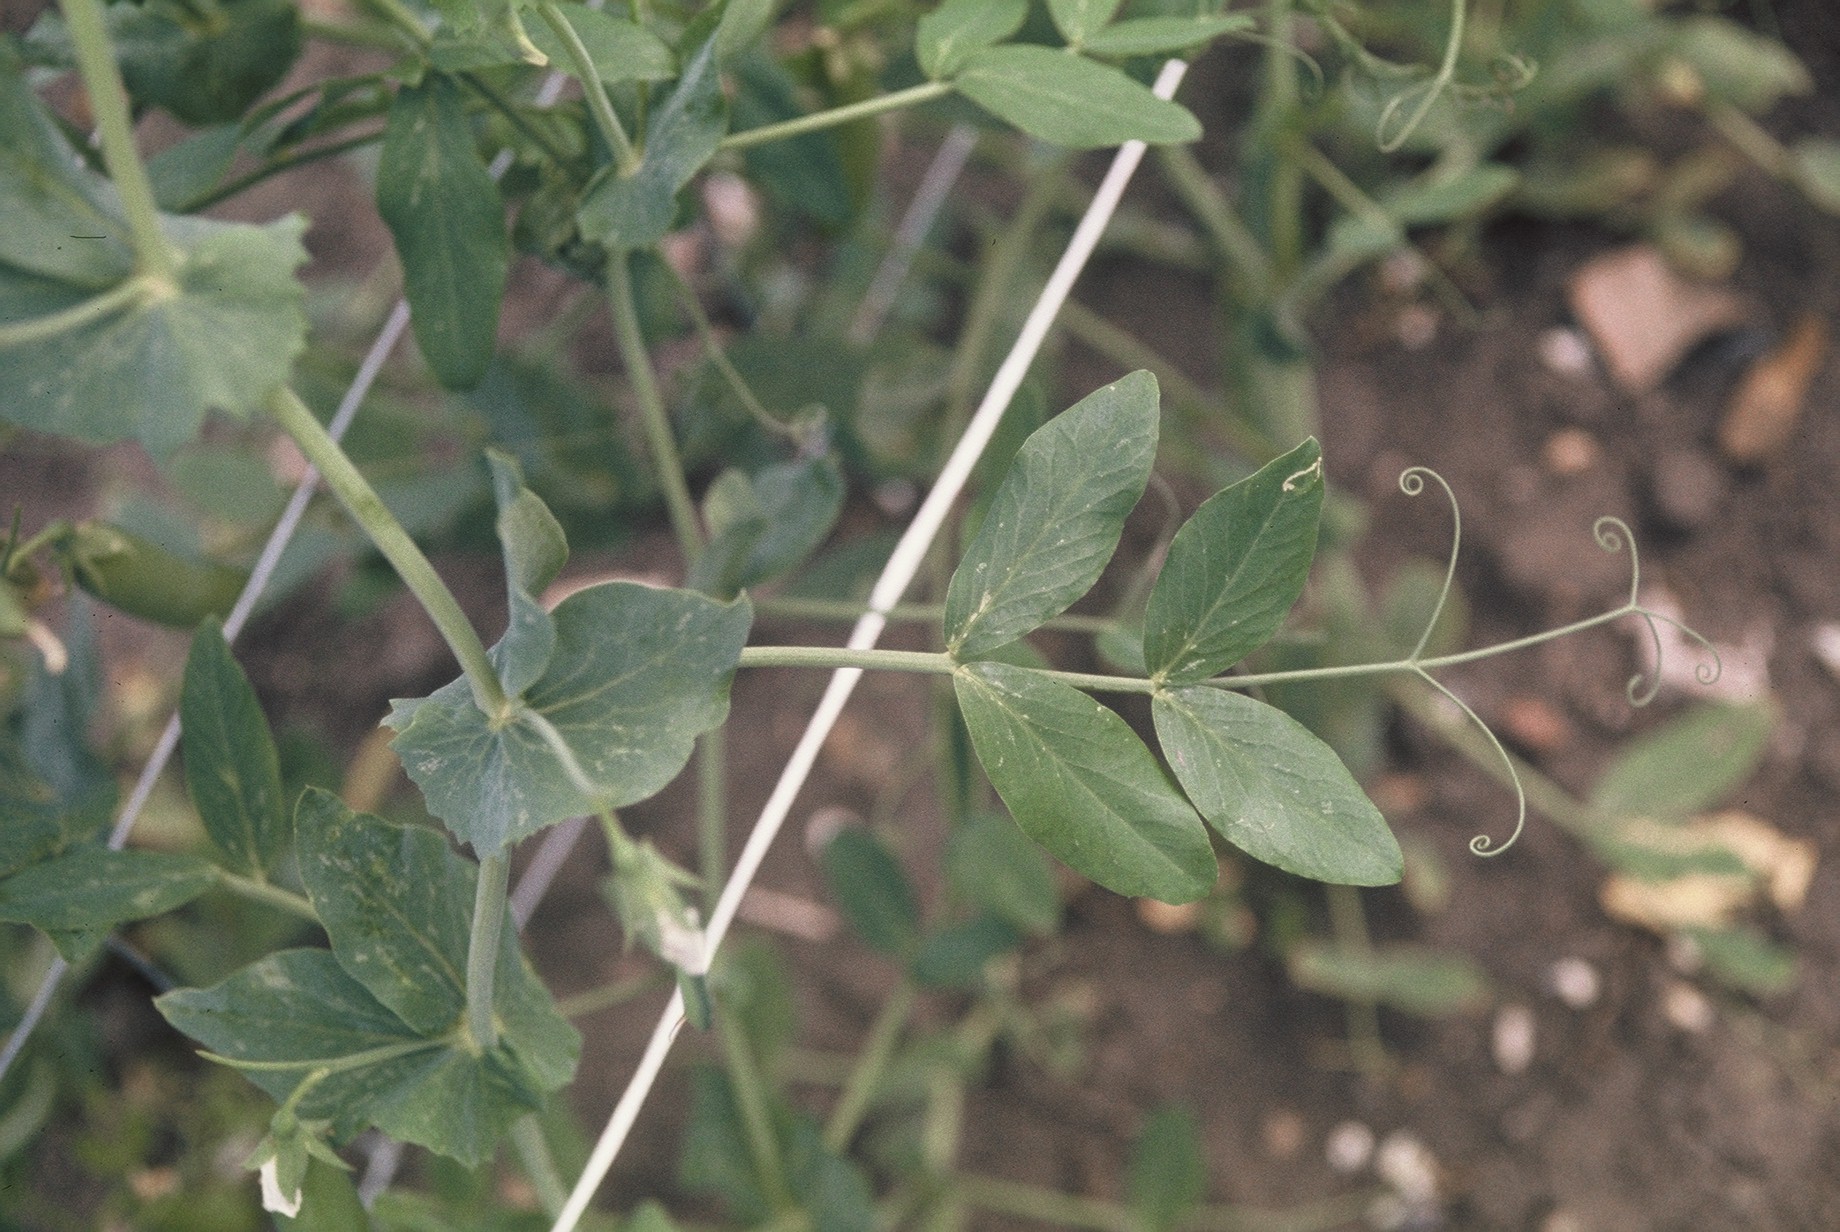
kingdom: Plantae
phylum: Tracheophyta
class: Magnoliopsida
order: Fabales
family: Fabaceae
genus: Lathyrus
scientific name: Lathyrus oleraceus
